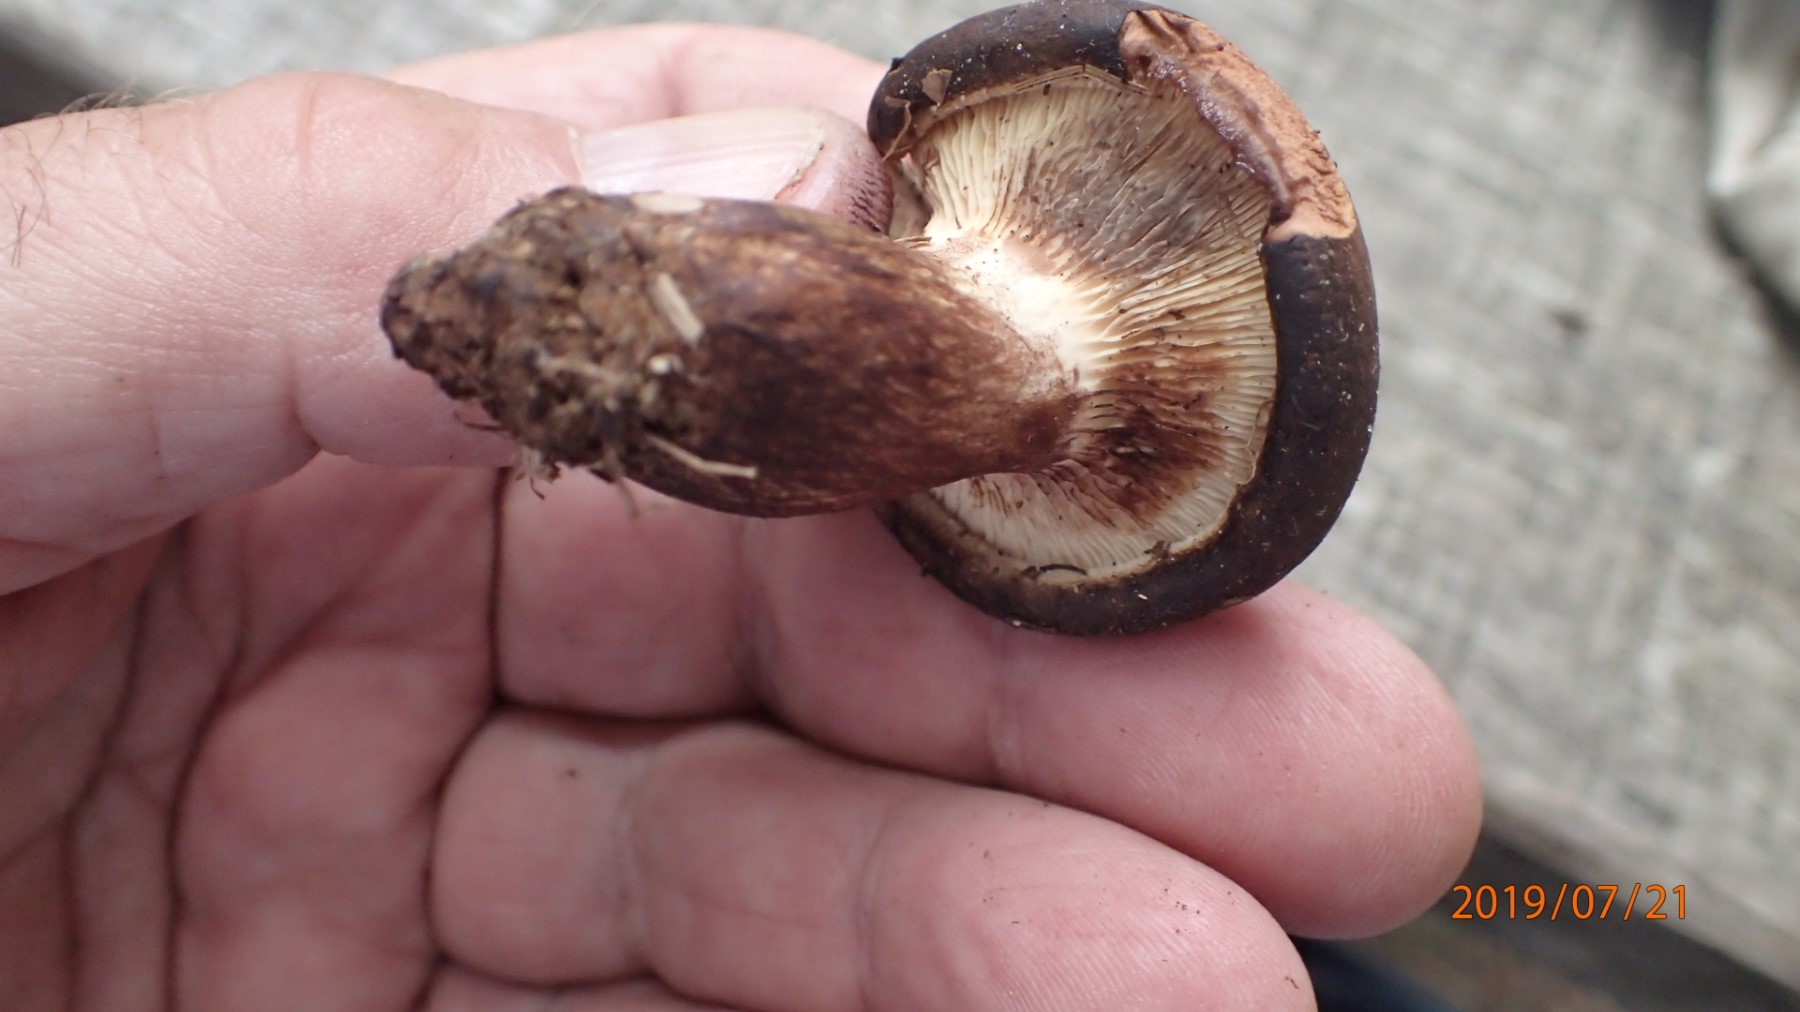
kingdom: Fungi
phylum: Basidiomycota
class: Agaricomycetes
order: Boletales
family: Paxillaceae
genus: Paxillus
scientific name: Paxillus involutus
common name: almindelig netbladhat
